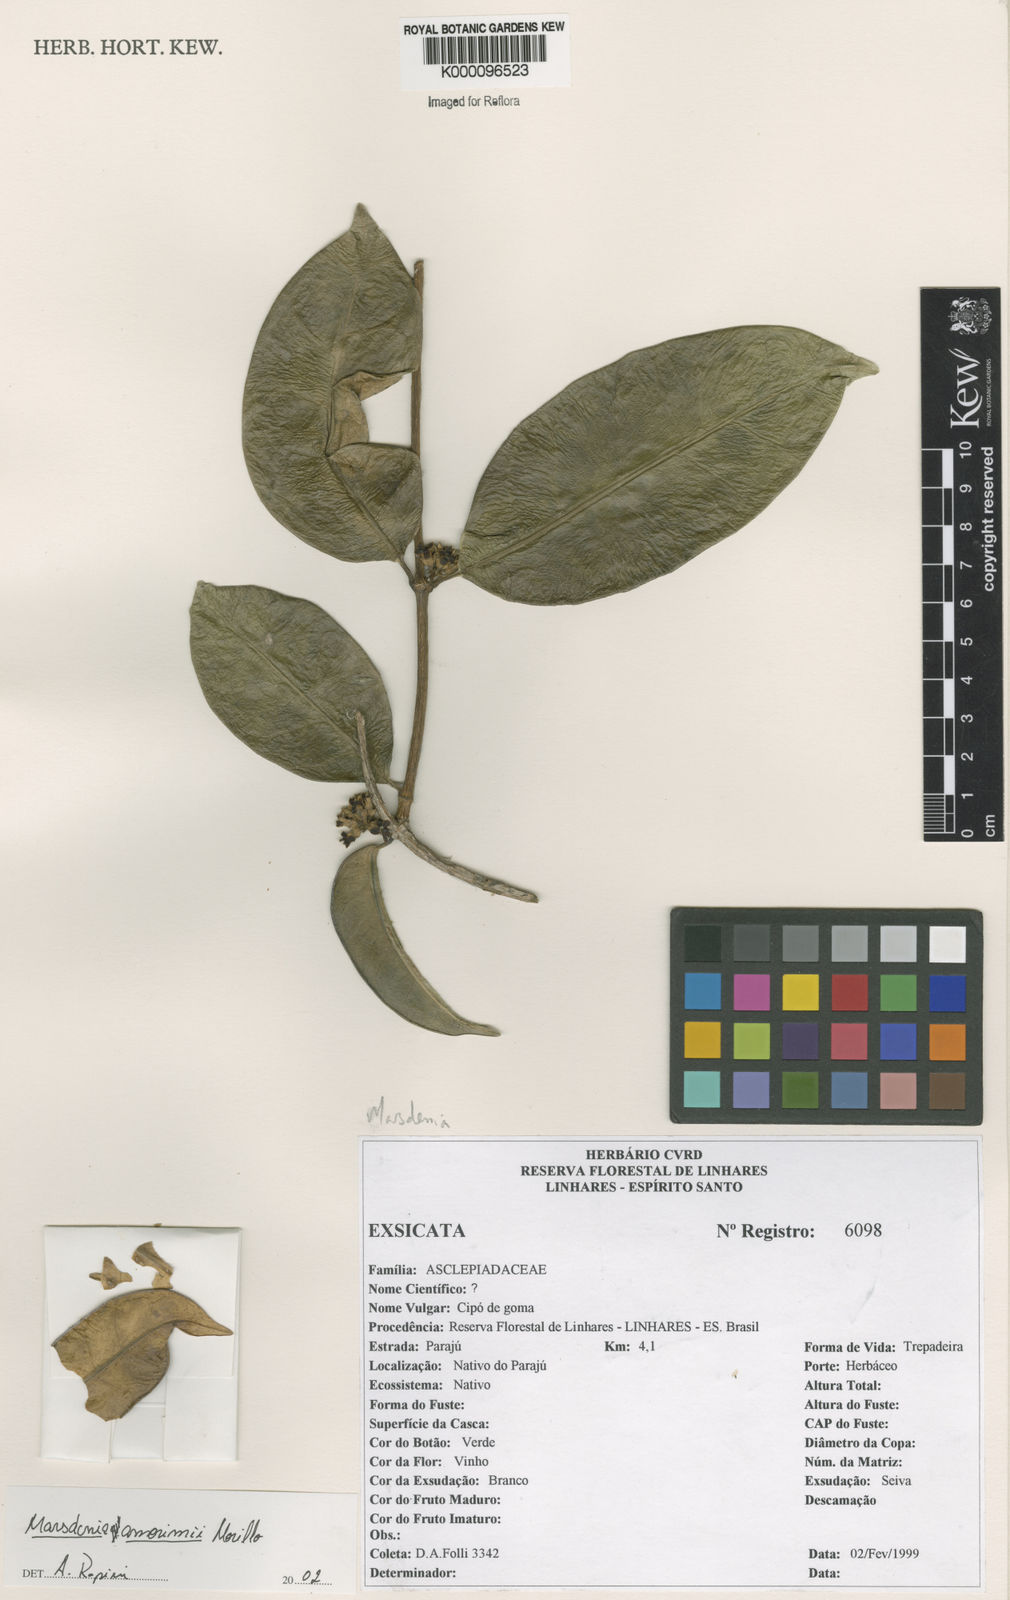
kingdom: Plantae
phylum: Tracheophyta
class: Magnoliopsida
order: Gentianales
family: Apocynaceae
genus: Ruehssia
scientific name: Ruehssia amorimii
